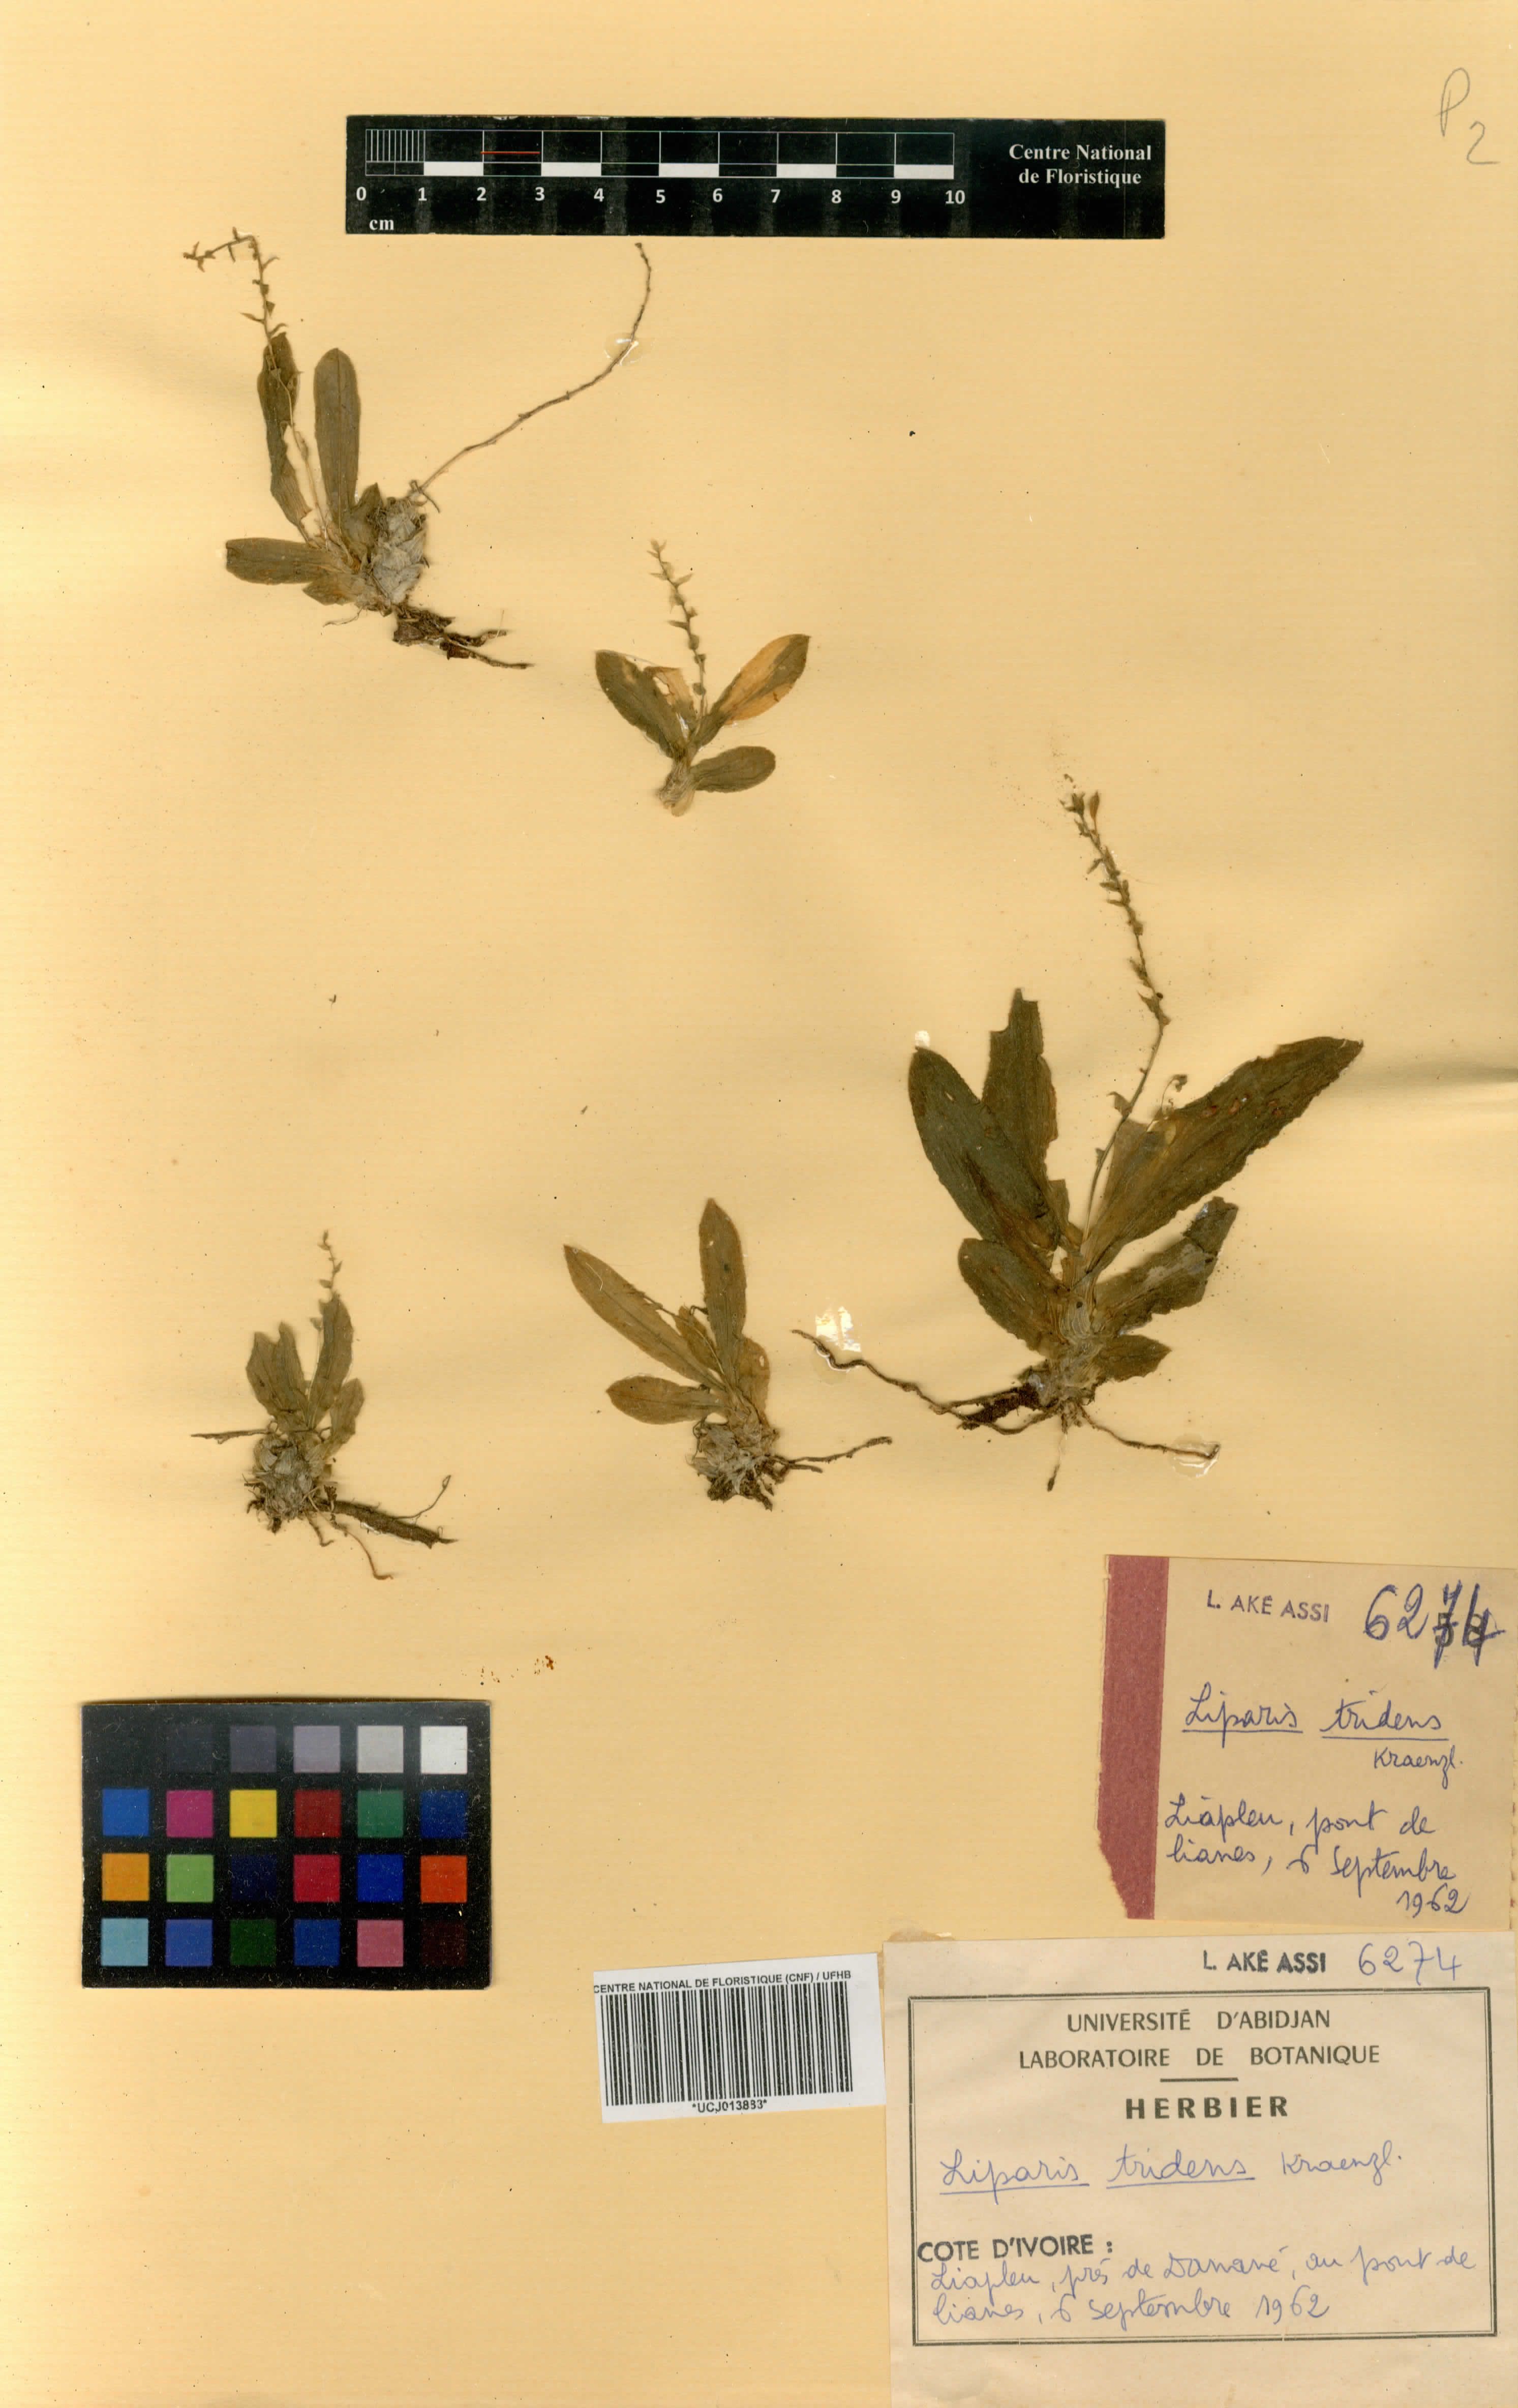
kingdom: Plantae
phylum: Tracheophyta
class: Liliopsida
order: Asparagales
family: Orchidaceae
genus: Liparis
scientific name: Liparis tridens
